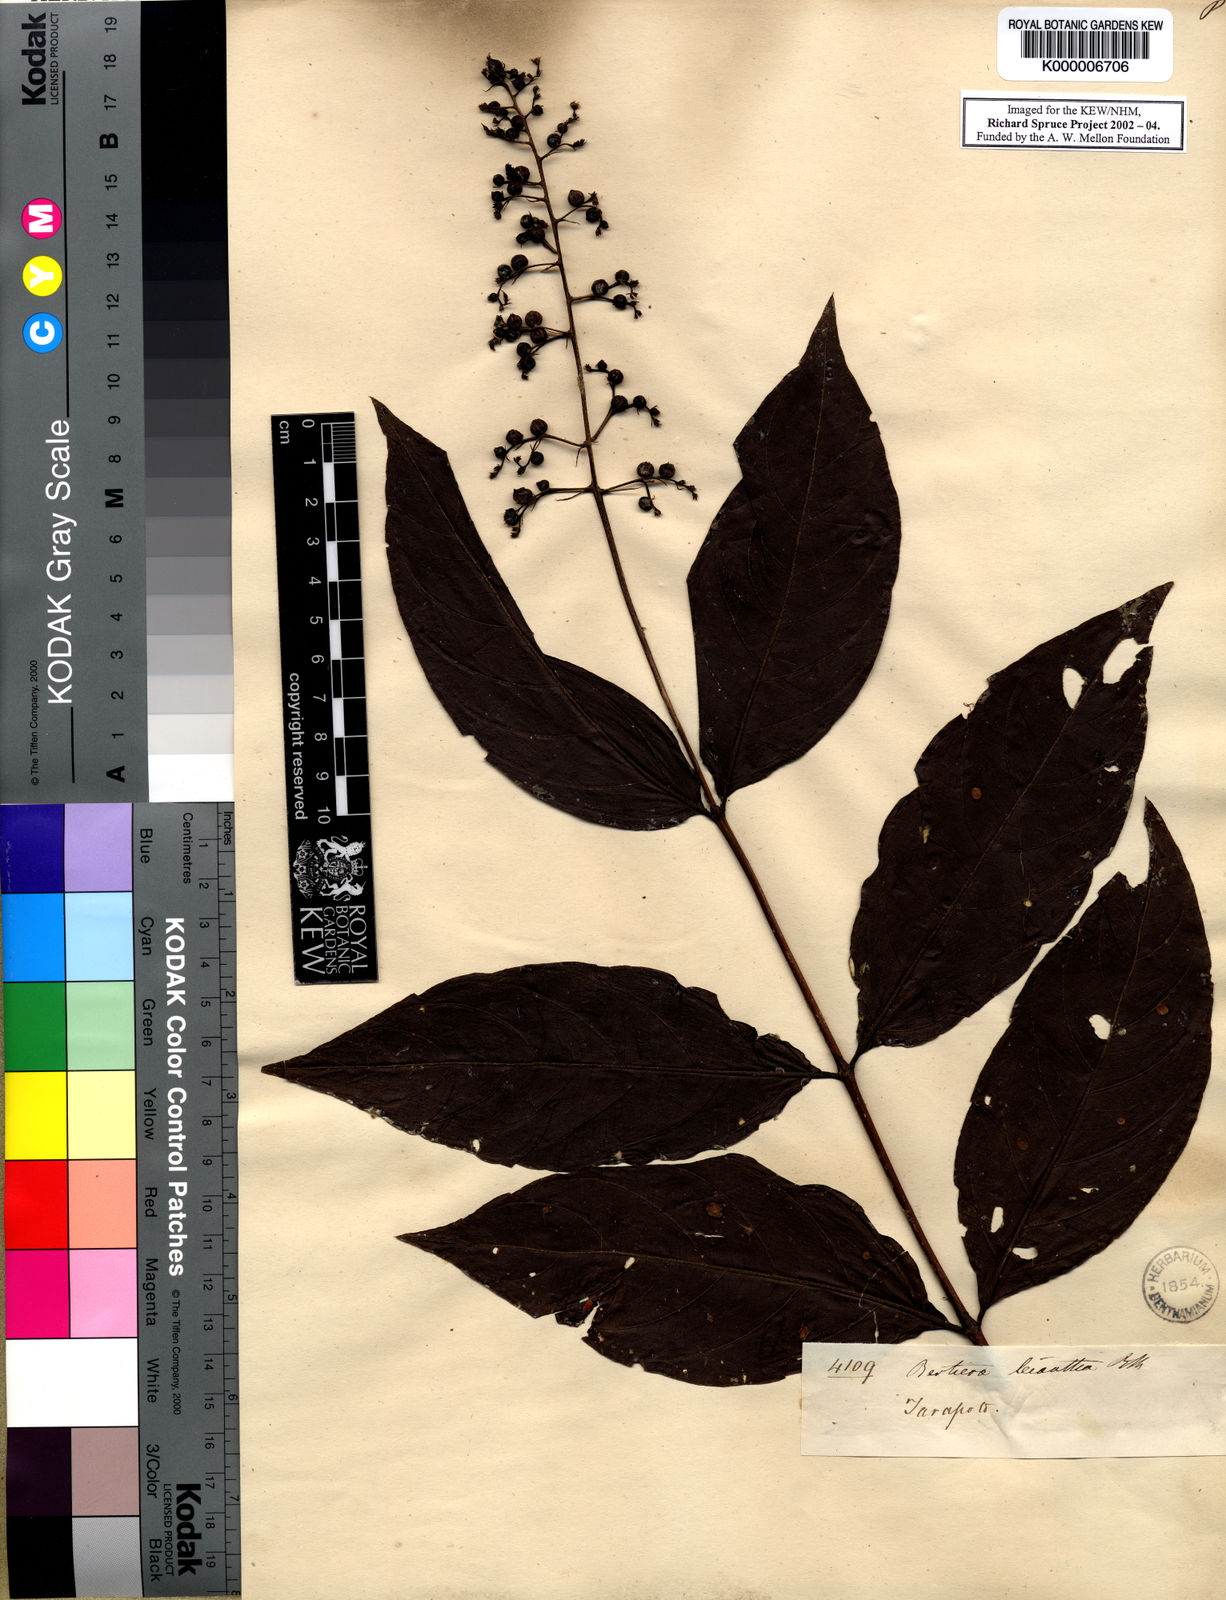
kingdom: Plantae
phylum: Tracheophyta
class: Magnoliopsida
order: Gentianales
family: Rubiaceae
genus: Bertiera
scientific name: Bertiera
